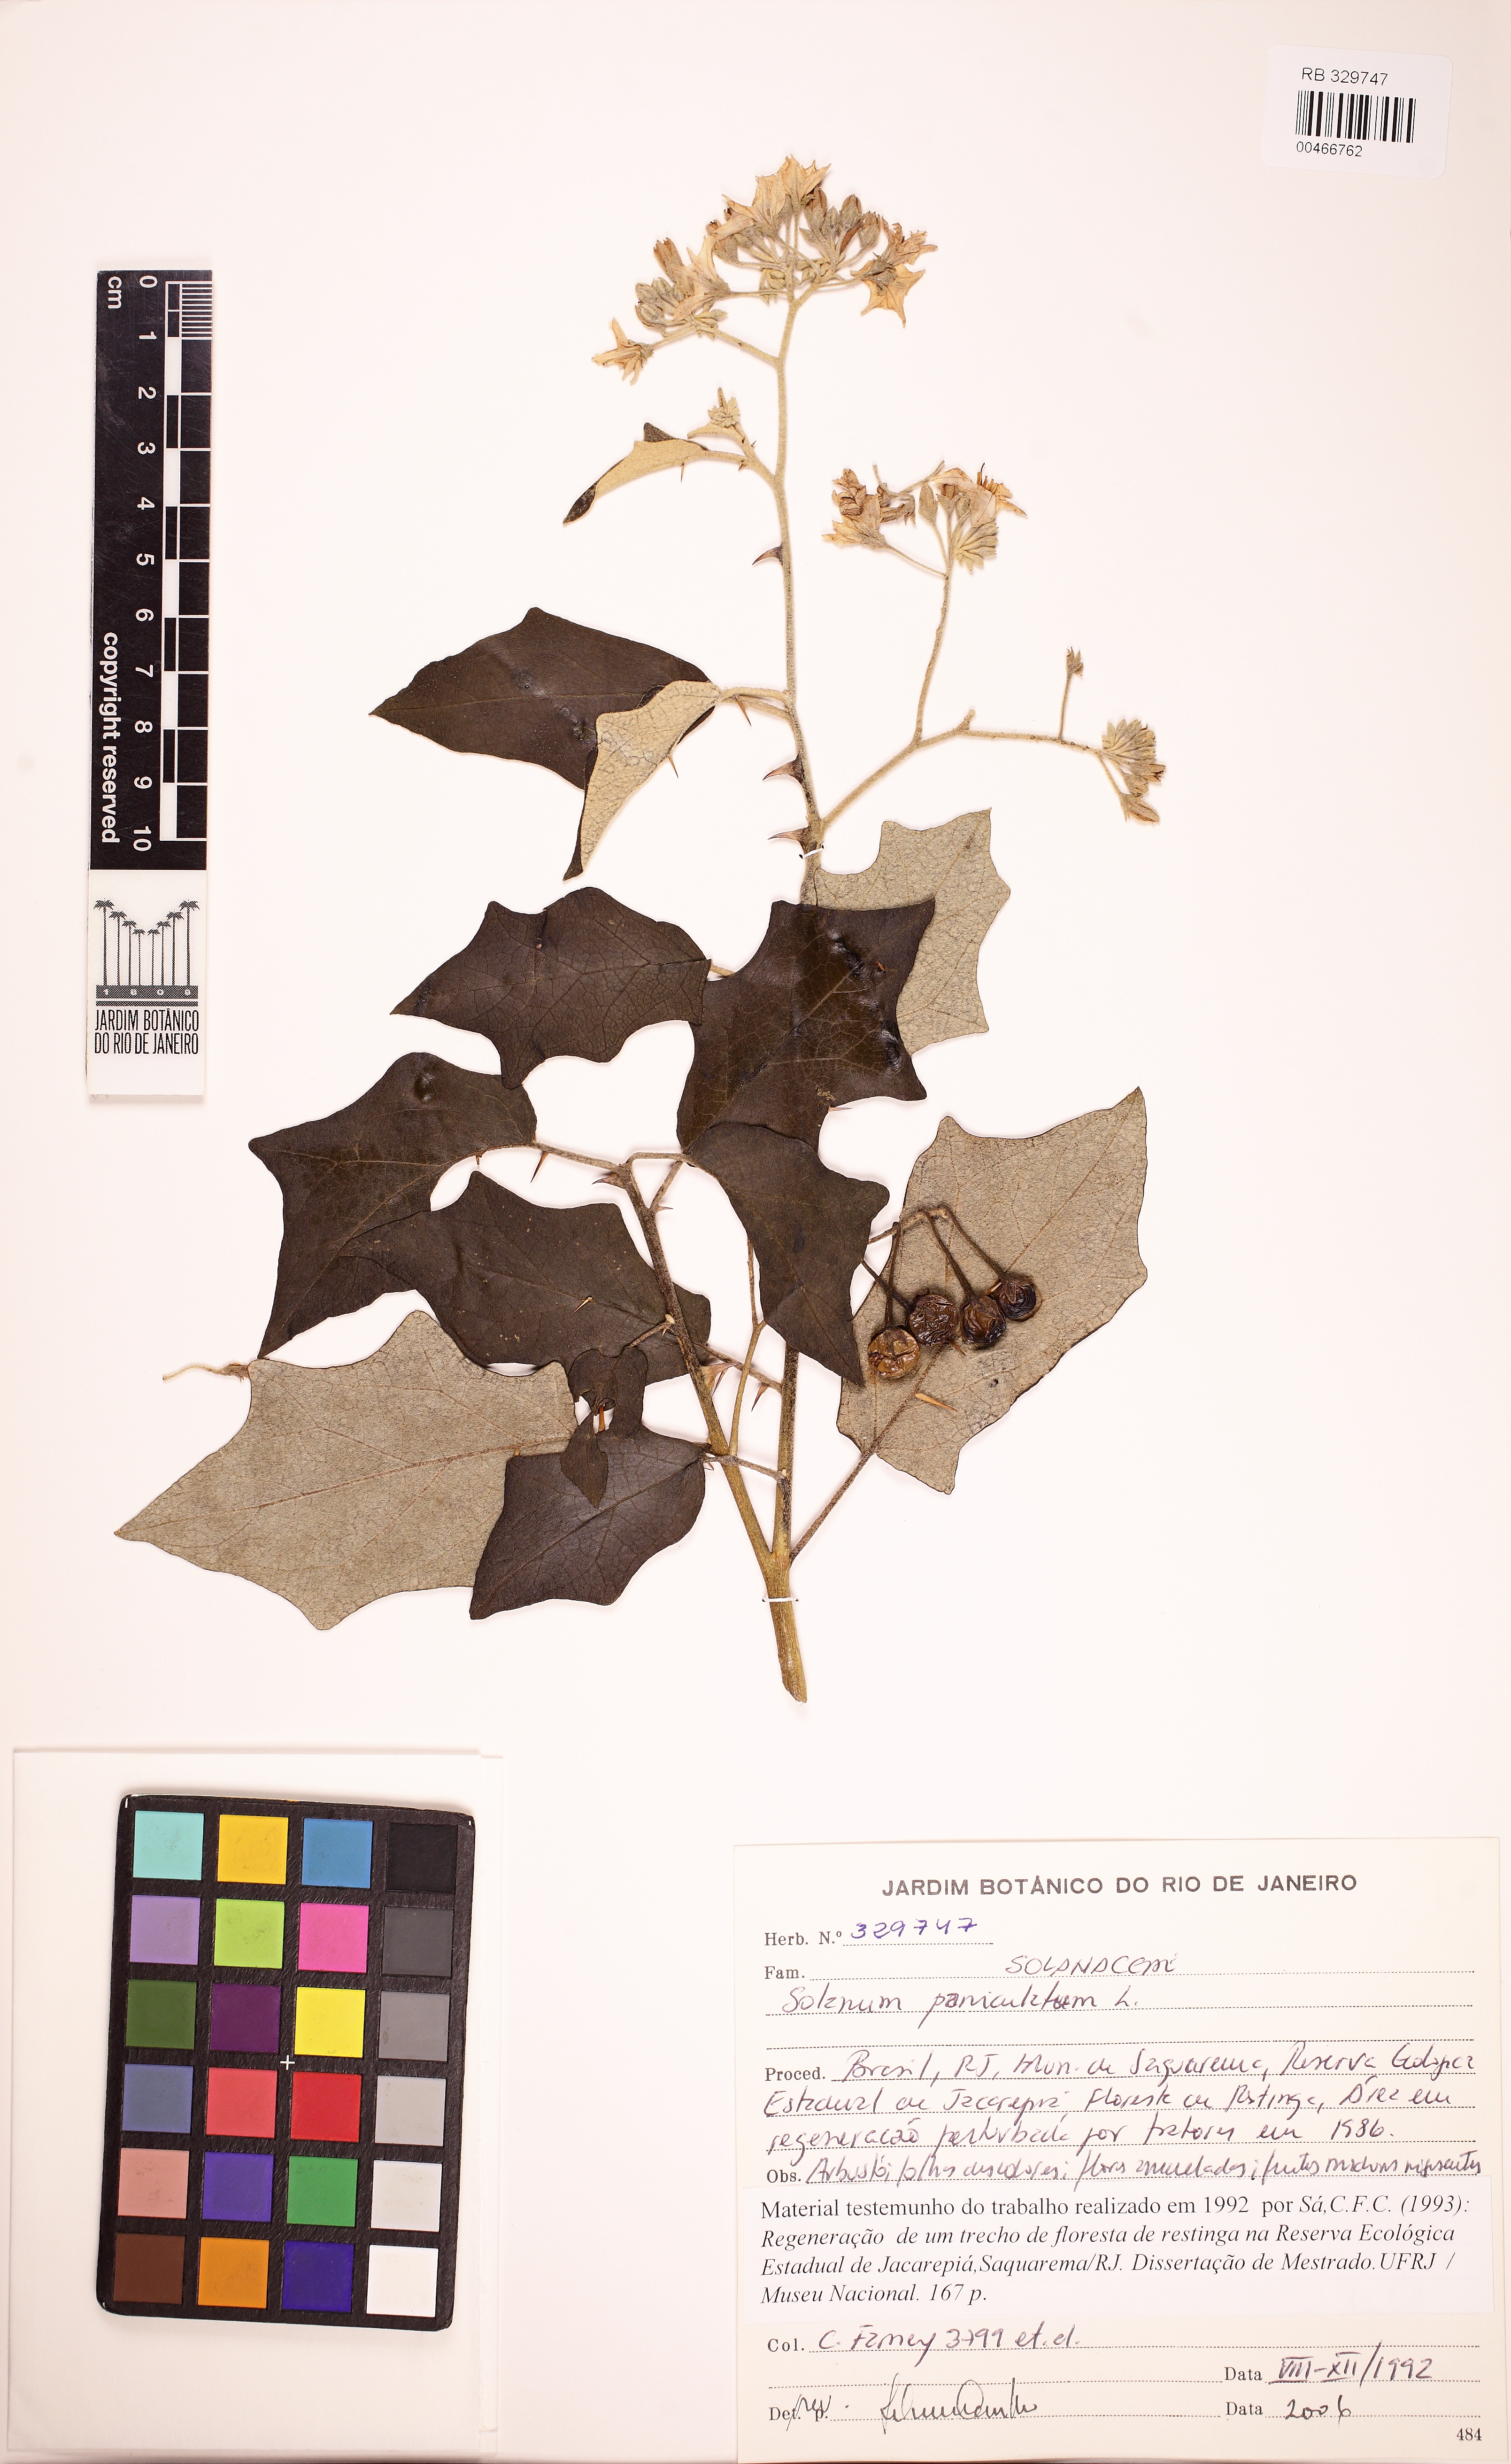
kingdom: Plantae
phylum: Tracheophyta
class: Magnoliopsida
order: Solanales
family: Solanaceae
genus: Solanum
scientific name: Solanum paniculatum
